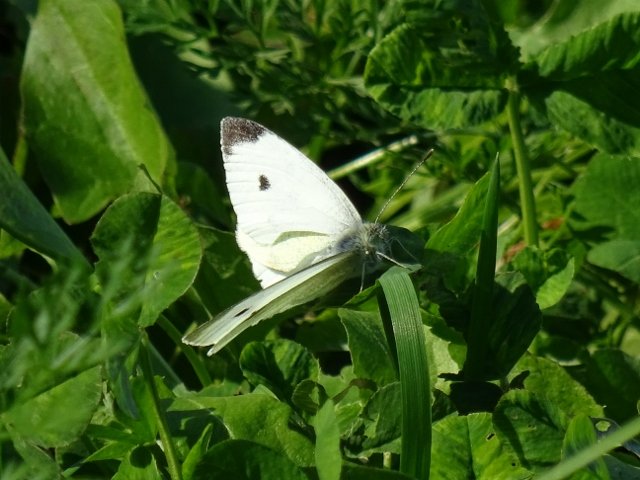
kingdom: Animalia
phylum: Arthropoda
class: Insecta
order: Lepidoptera
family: Pieridae
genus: Pieris
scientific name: Pieris rapae
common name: Cabbage White
